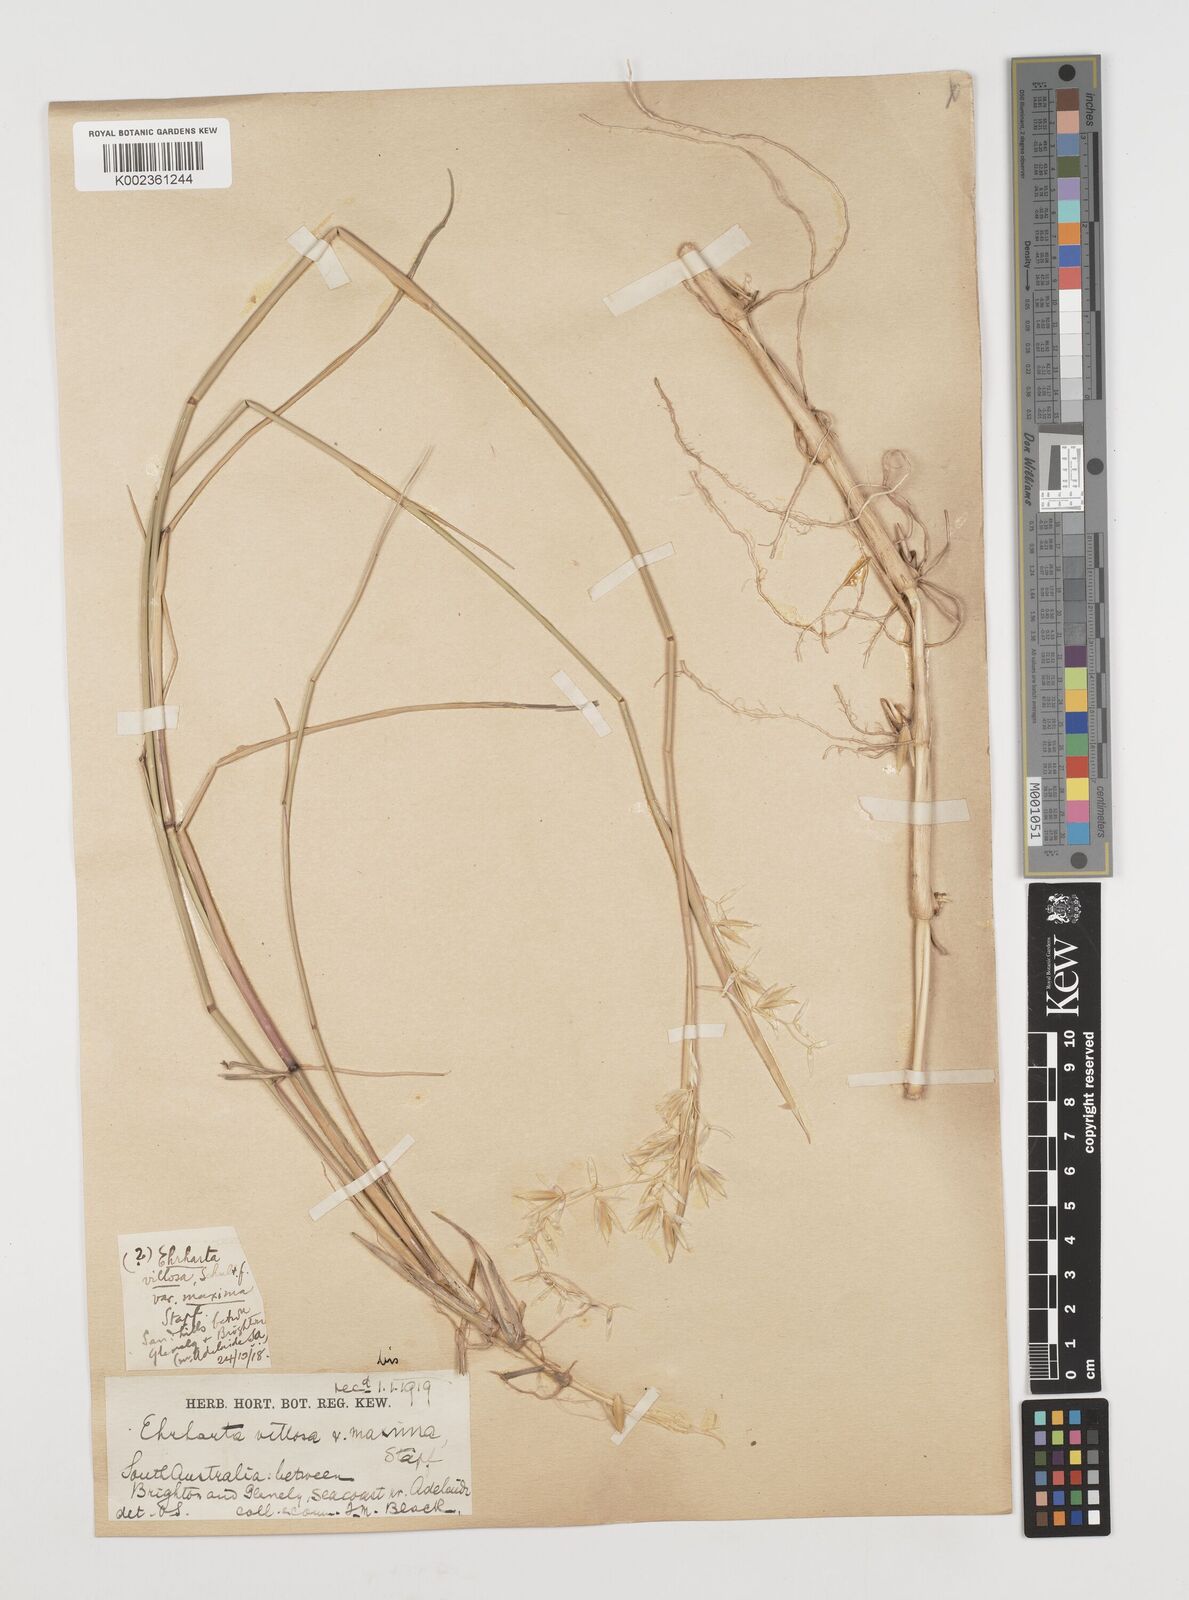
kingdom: Plantae
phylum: Tracheophyta
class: Liliopsida
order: Poales
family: Poaceae
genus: Ehrharta
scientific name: Ehrharta villosa
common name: Pyp grass
